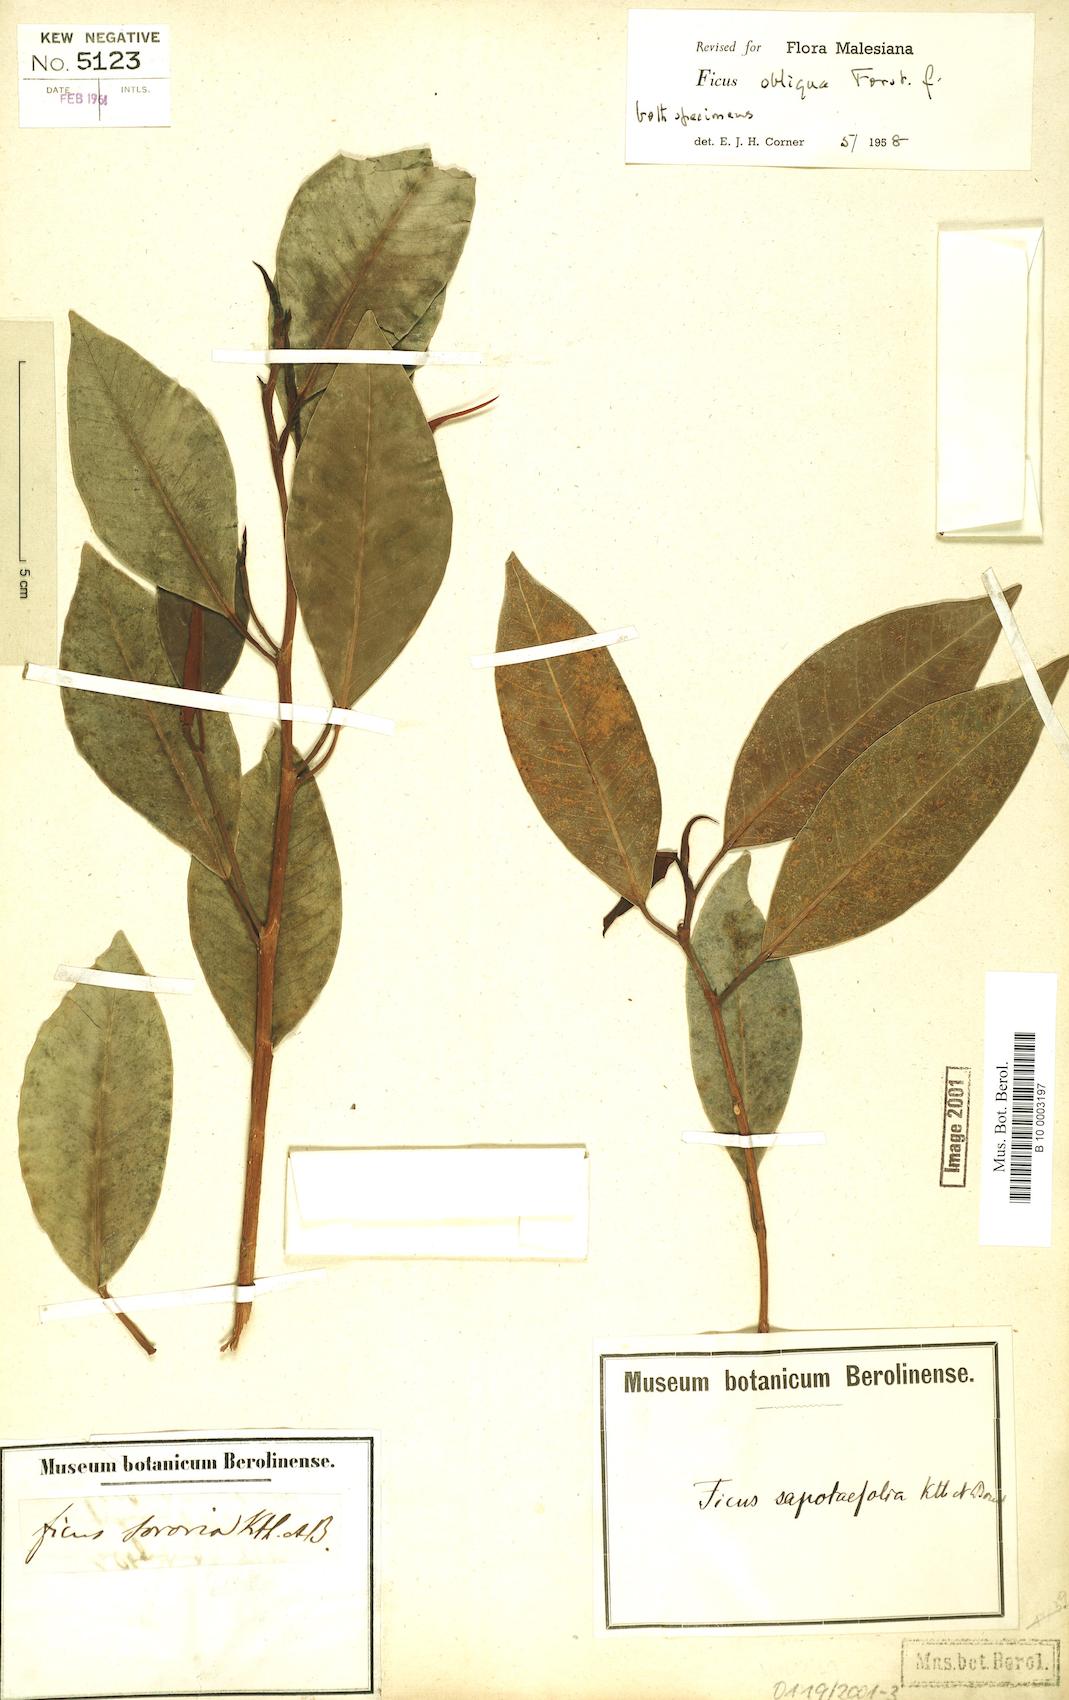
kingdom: Plantae
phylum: Tracheophyta
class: Magnoliopsida
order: Rosales
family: Moraceae
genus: Ficus
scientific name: Ficus obliqua
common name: Small-leaf fig
